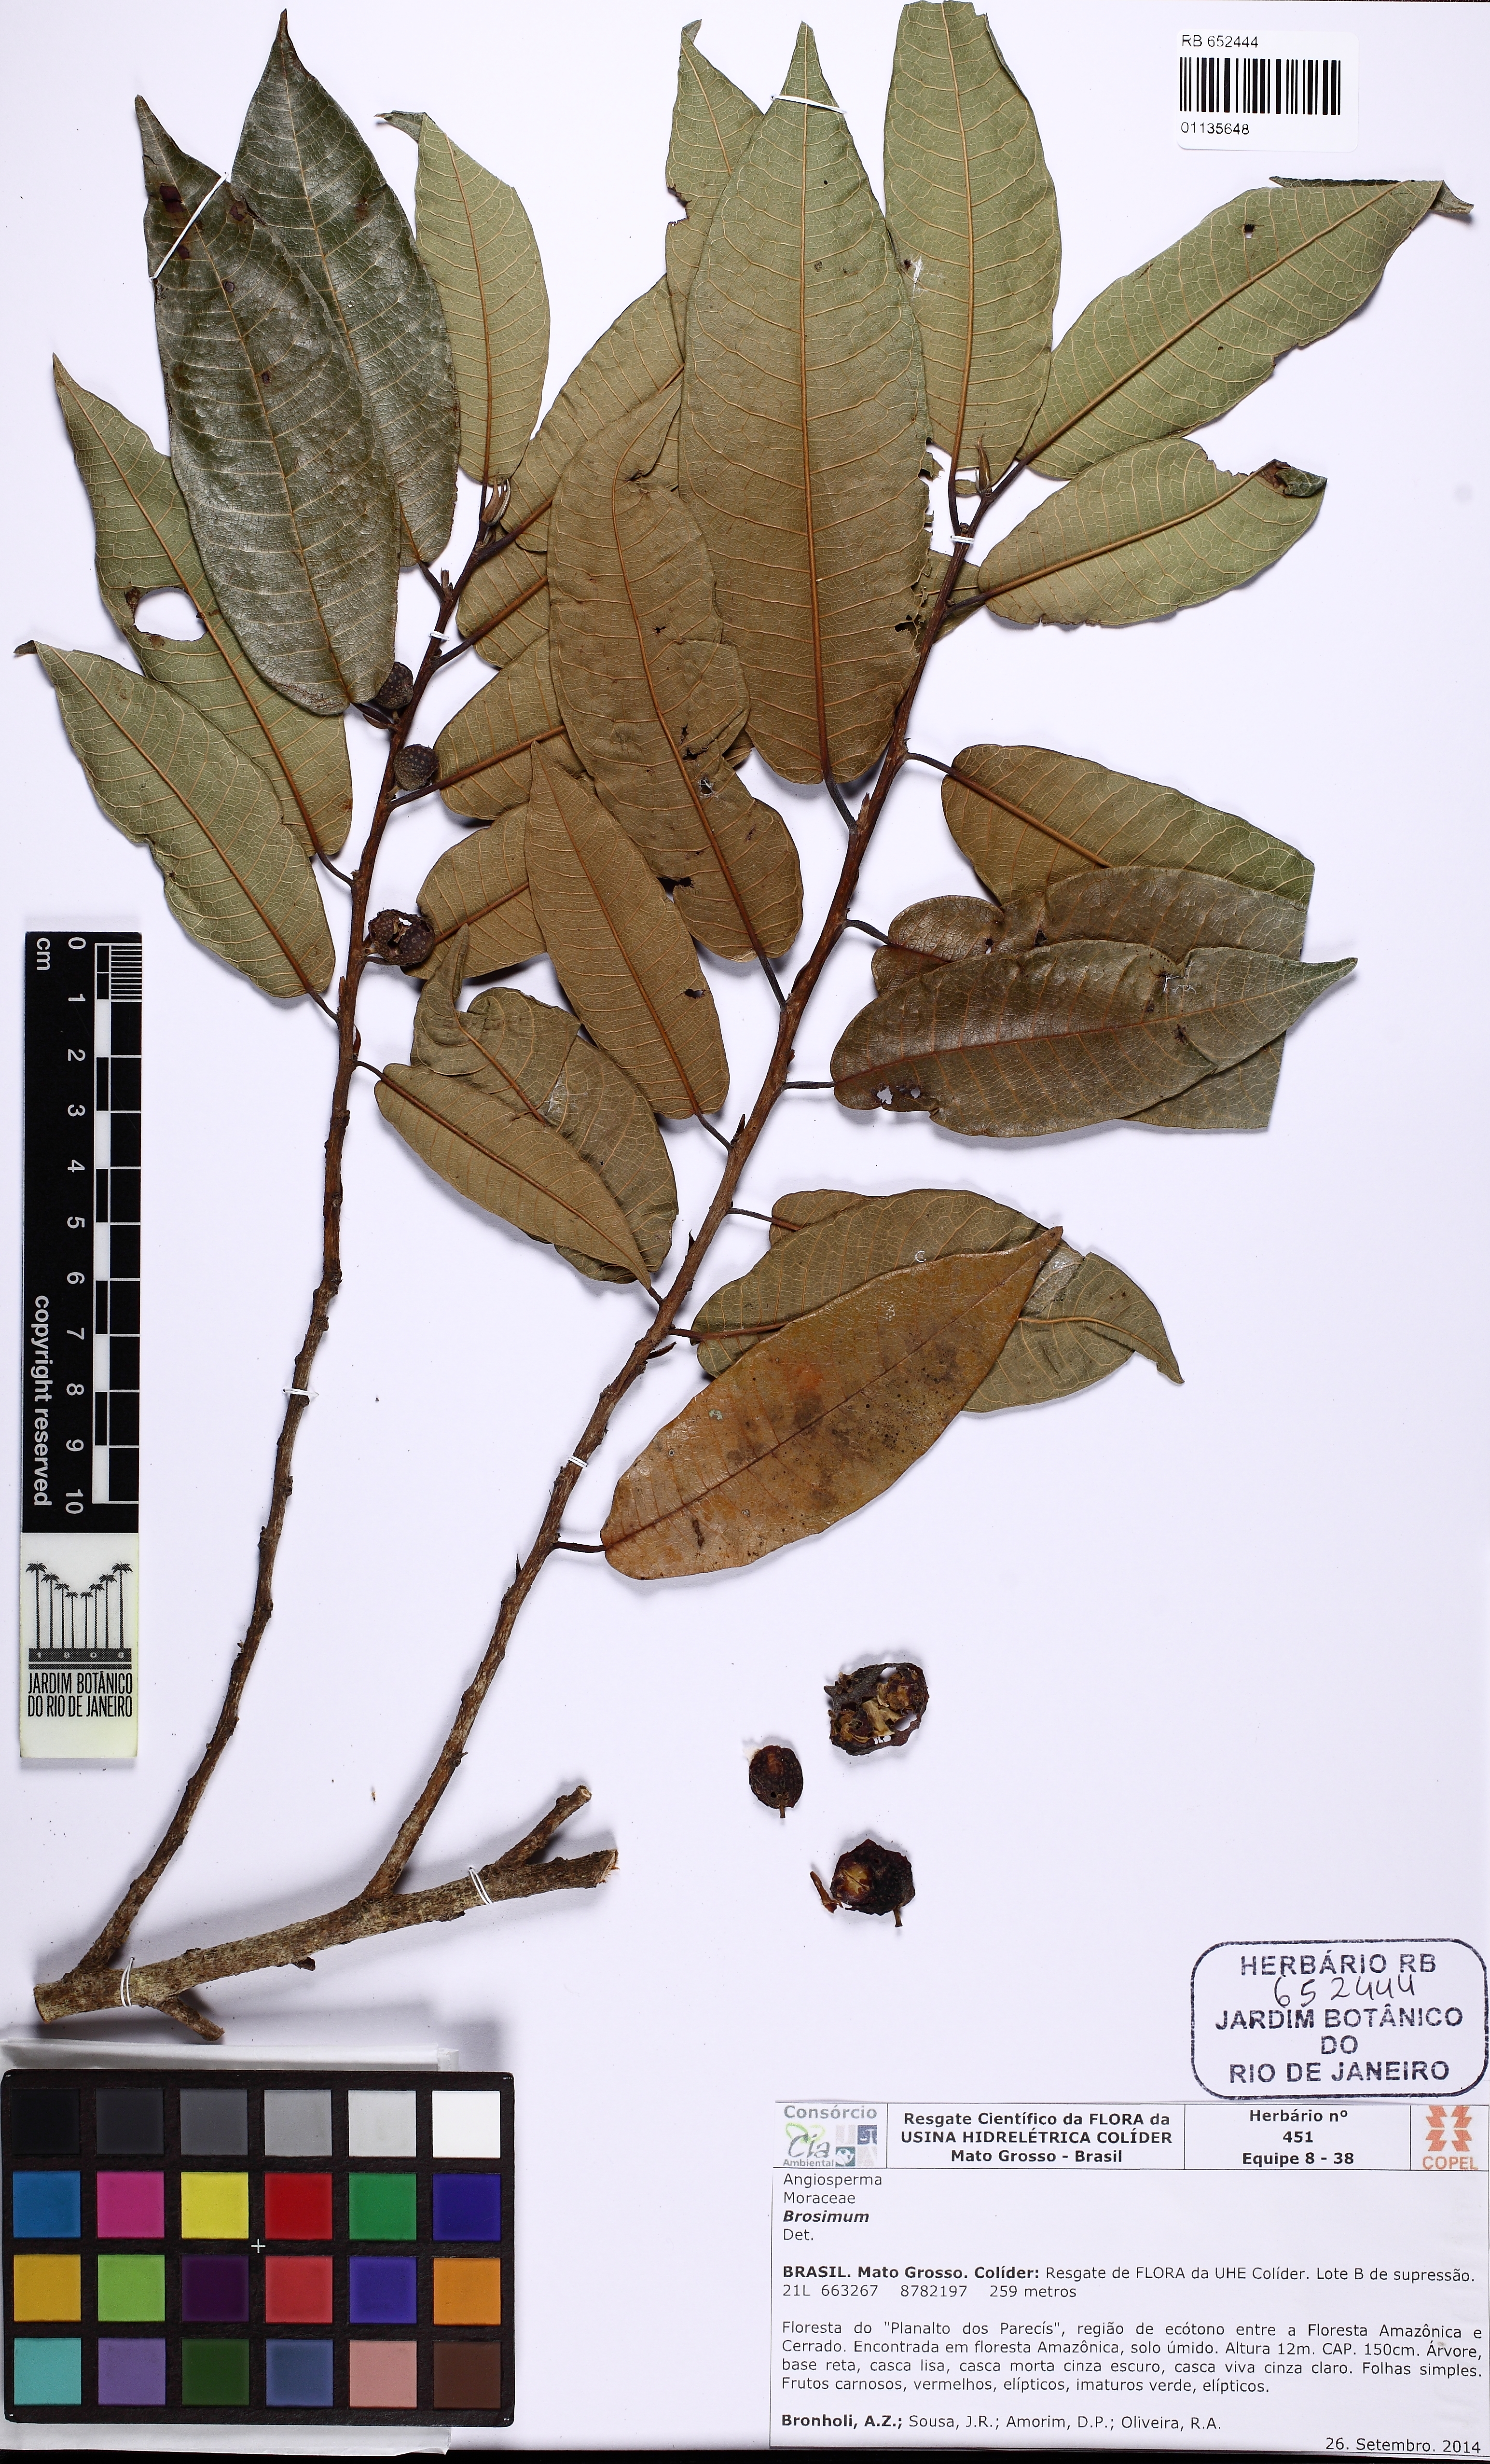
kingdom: Plantae
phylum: Tracheophyta
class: Magnoliopsida
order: Rosales
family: Moraceae
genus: Brosimum
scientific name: Brosimum
